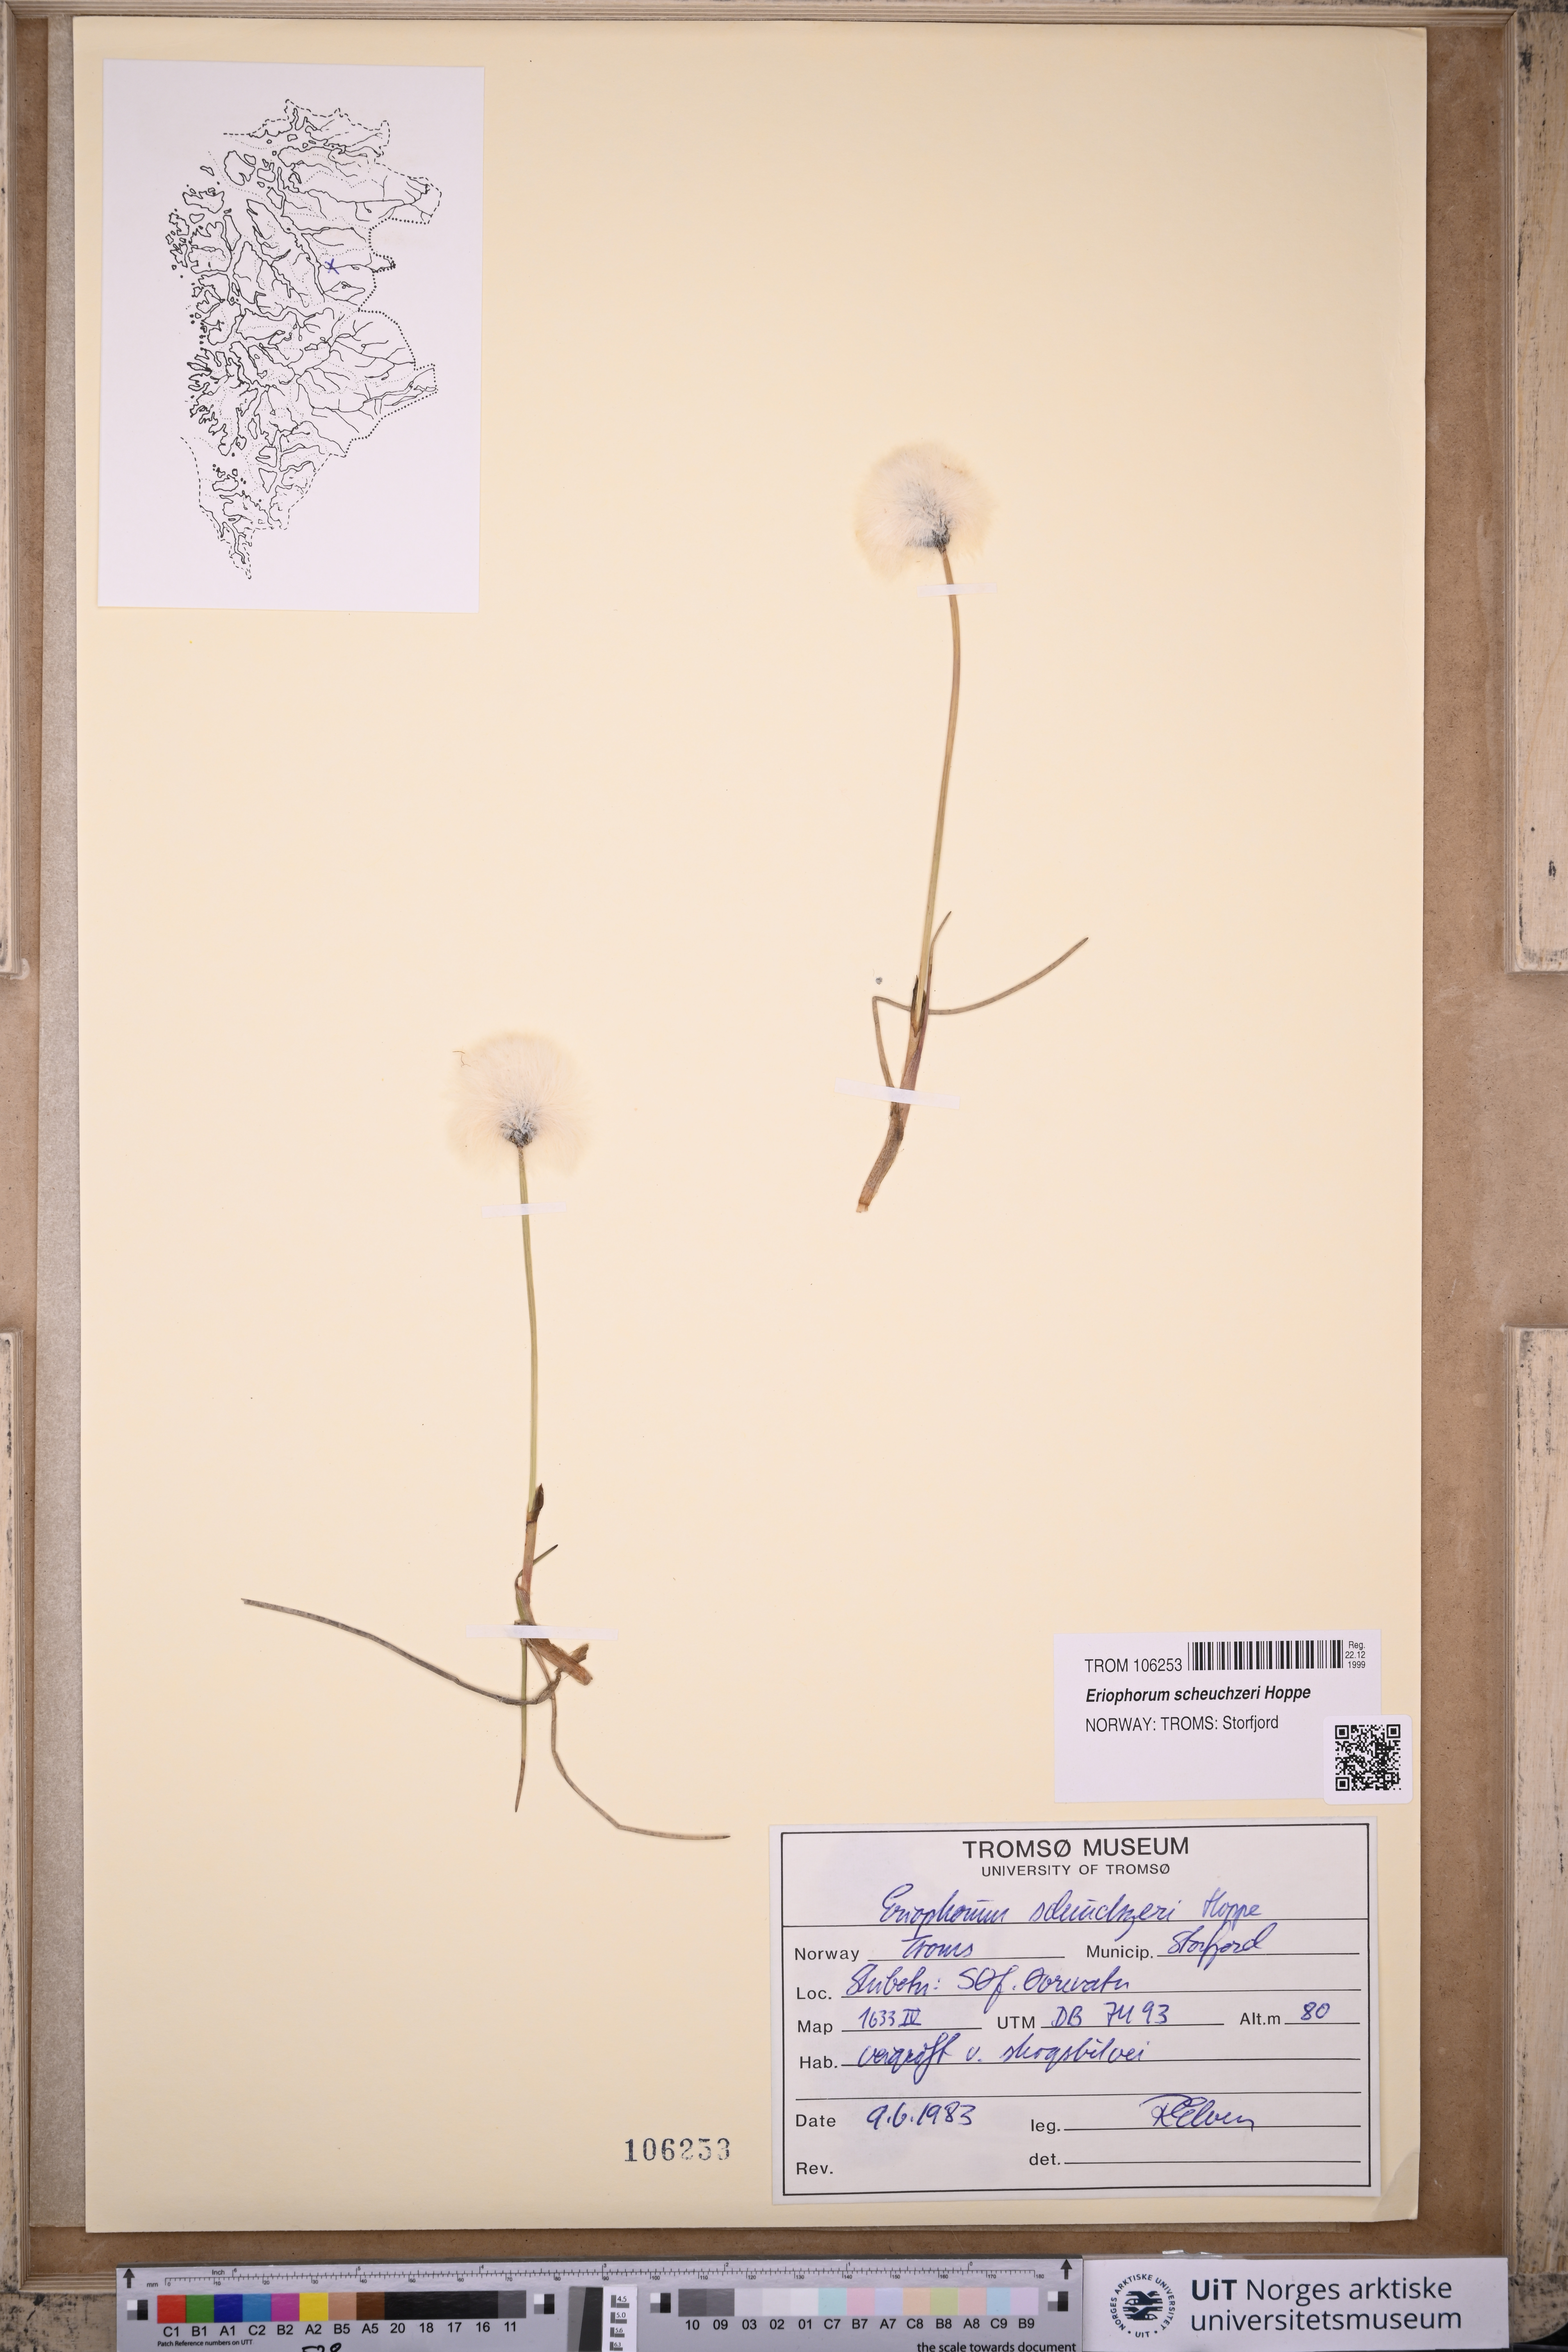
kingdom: Plantae
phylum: Tracheophyta
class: Liliopsida
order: Poales
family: Cyperaceae
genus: Eriophorum
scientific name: Eriophorum scheuchzeri
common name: Scheuchzer's cottongrass
